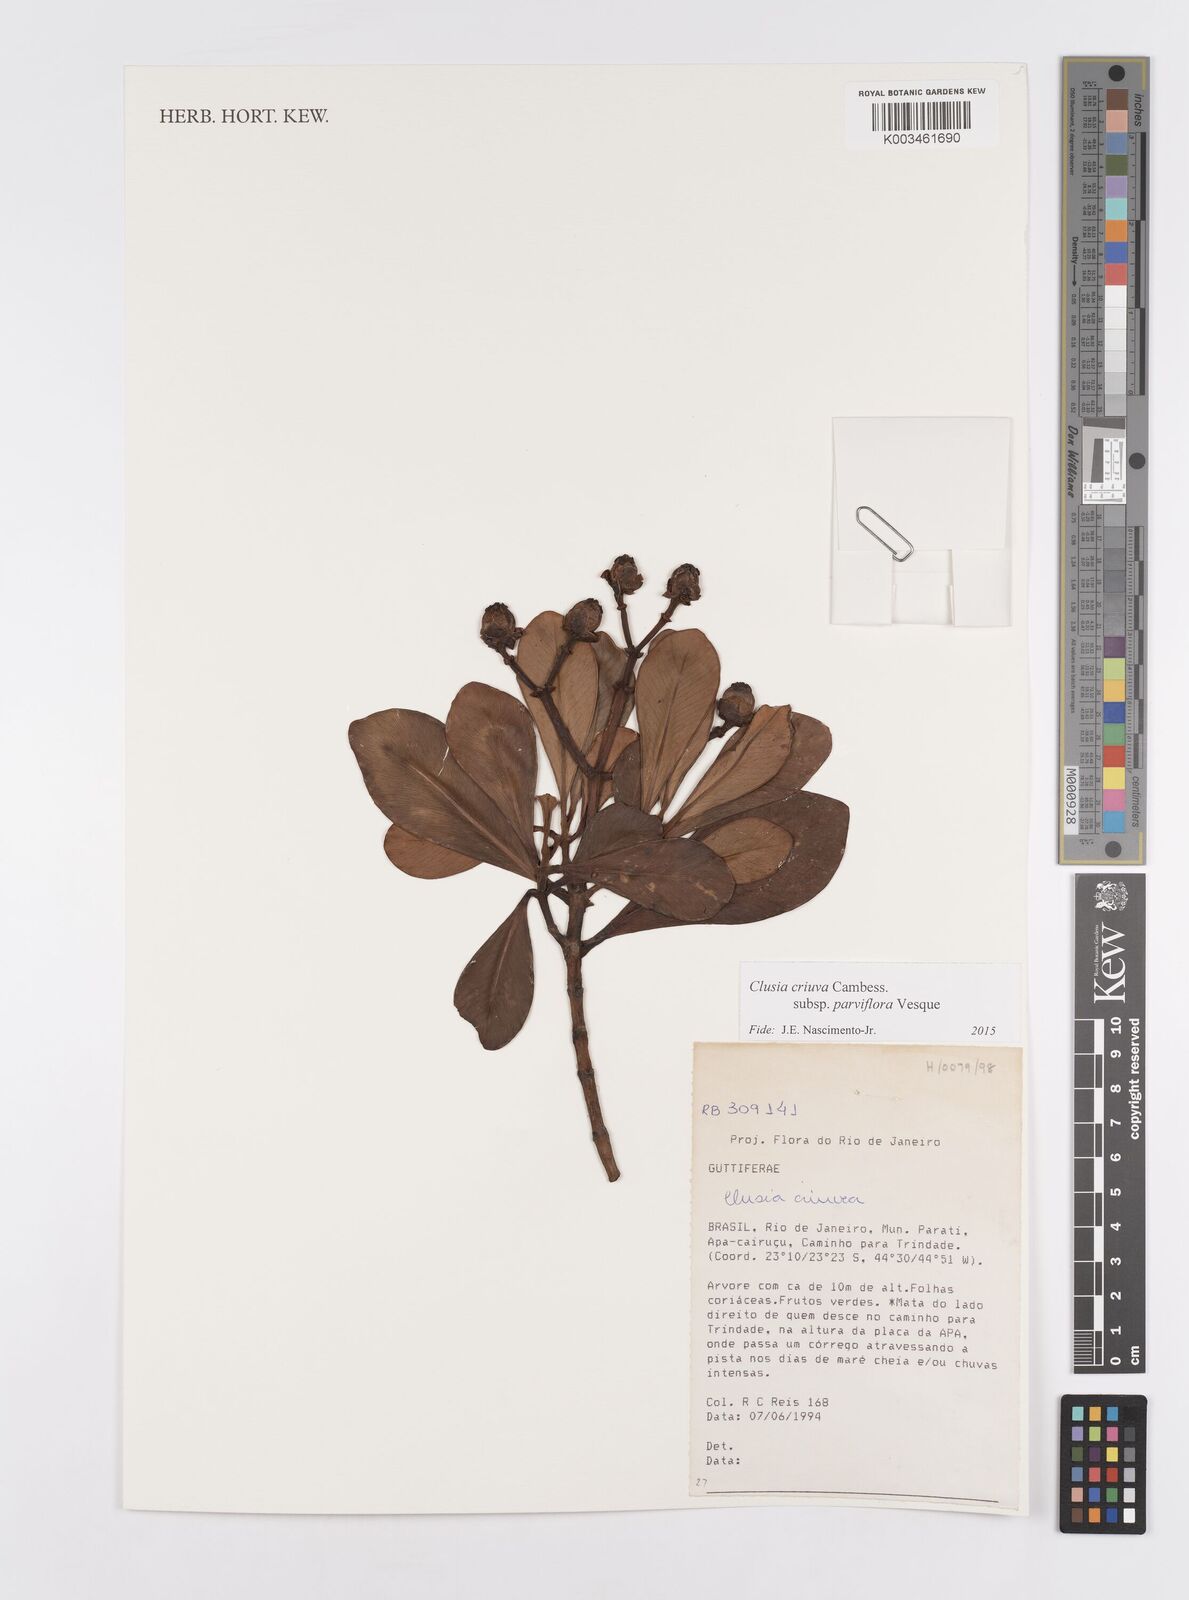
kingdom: Plantae
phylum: Tracheophyta
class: Magnoliopsida
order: Malpighiales
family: Clusiaceae
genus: Clusia
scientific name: Clusia criuva
